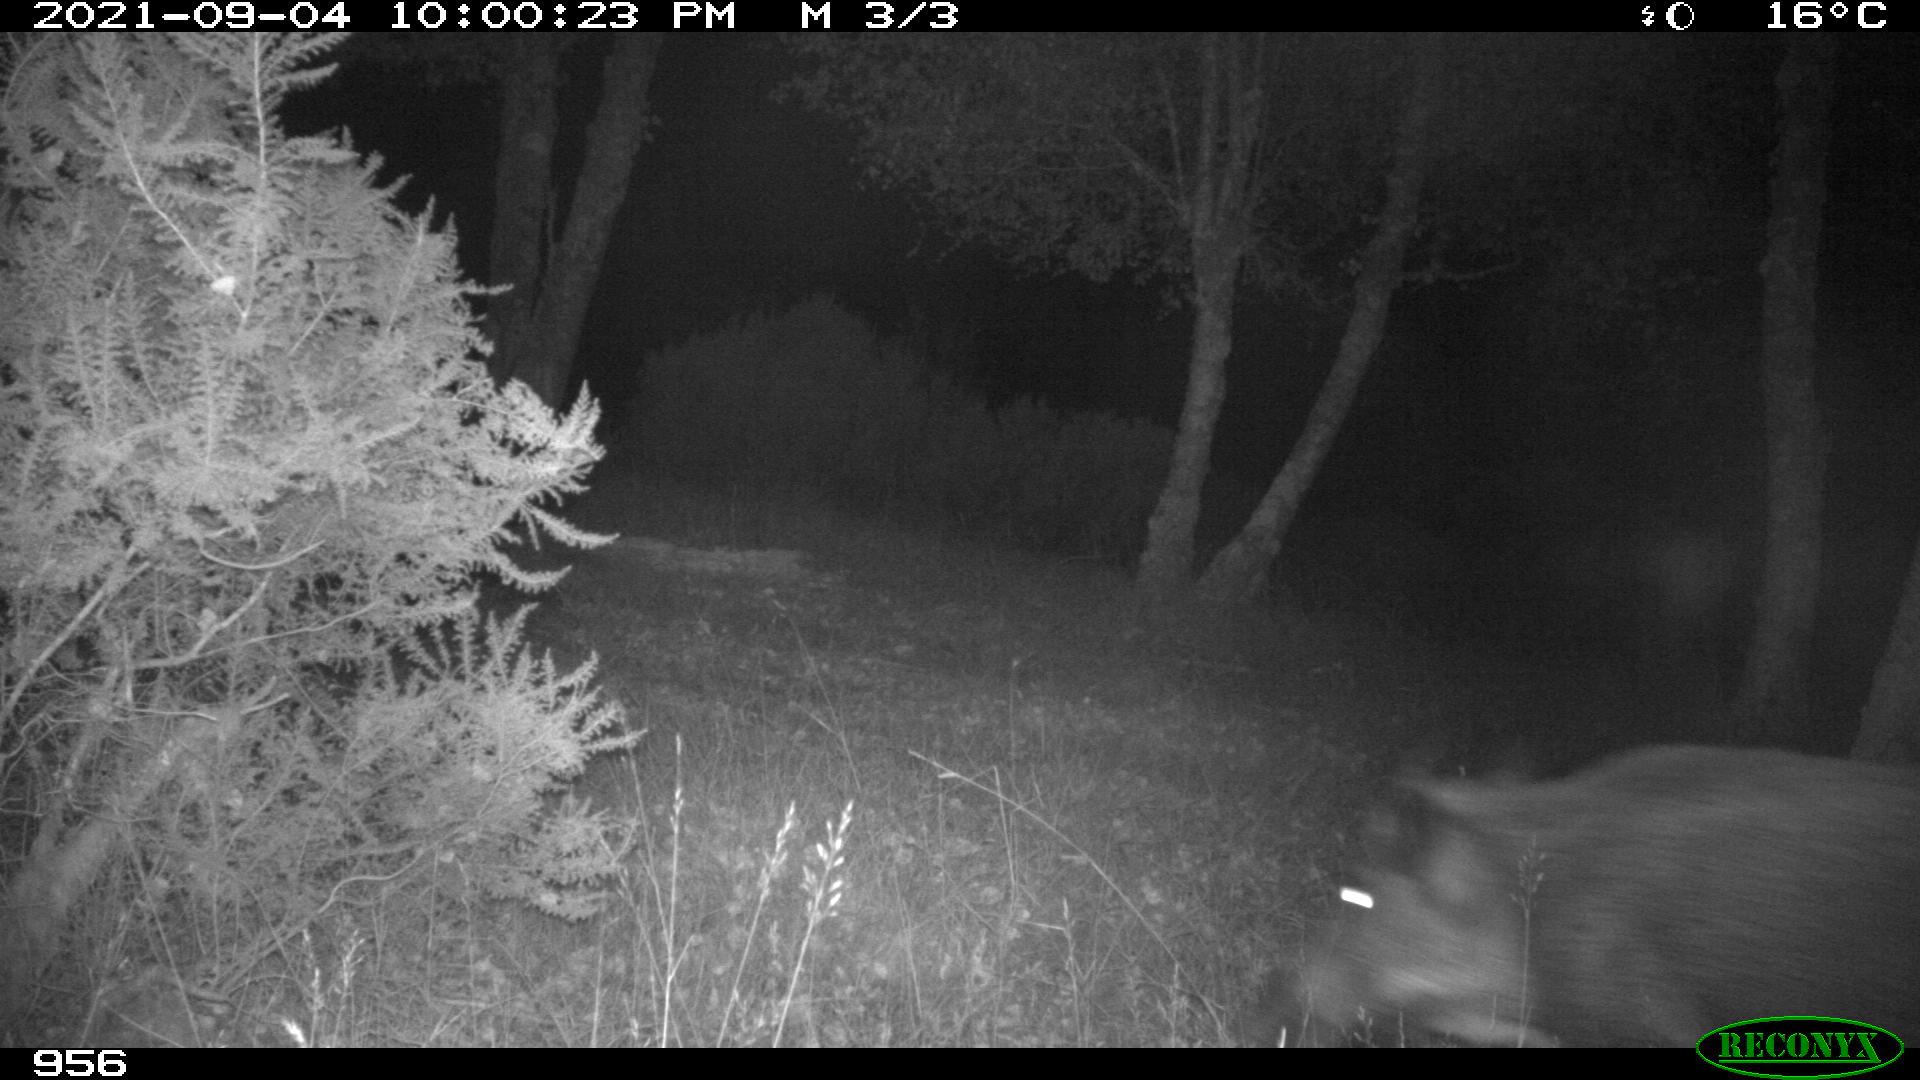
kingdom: Animalia
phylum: Chordata
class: Mammalia
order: Artiodactyla
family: Suidae
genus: Sus
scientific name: Sus scrofa
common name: Wild boar
